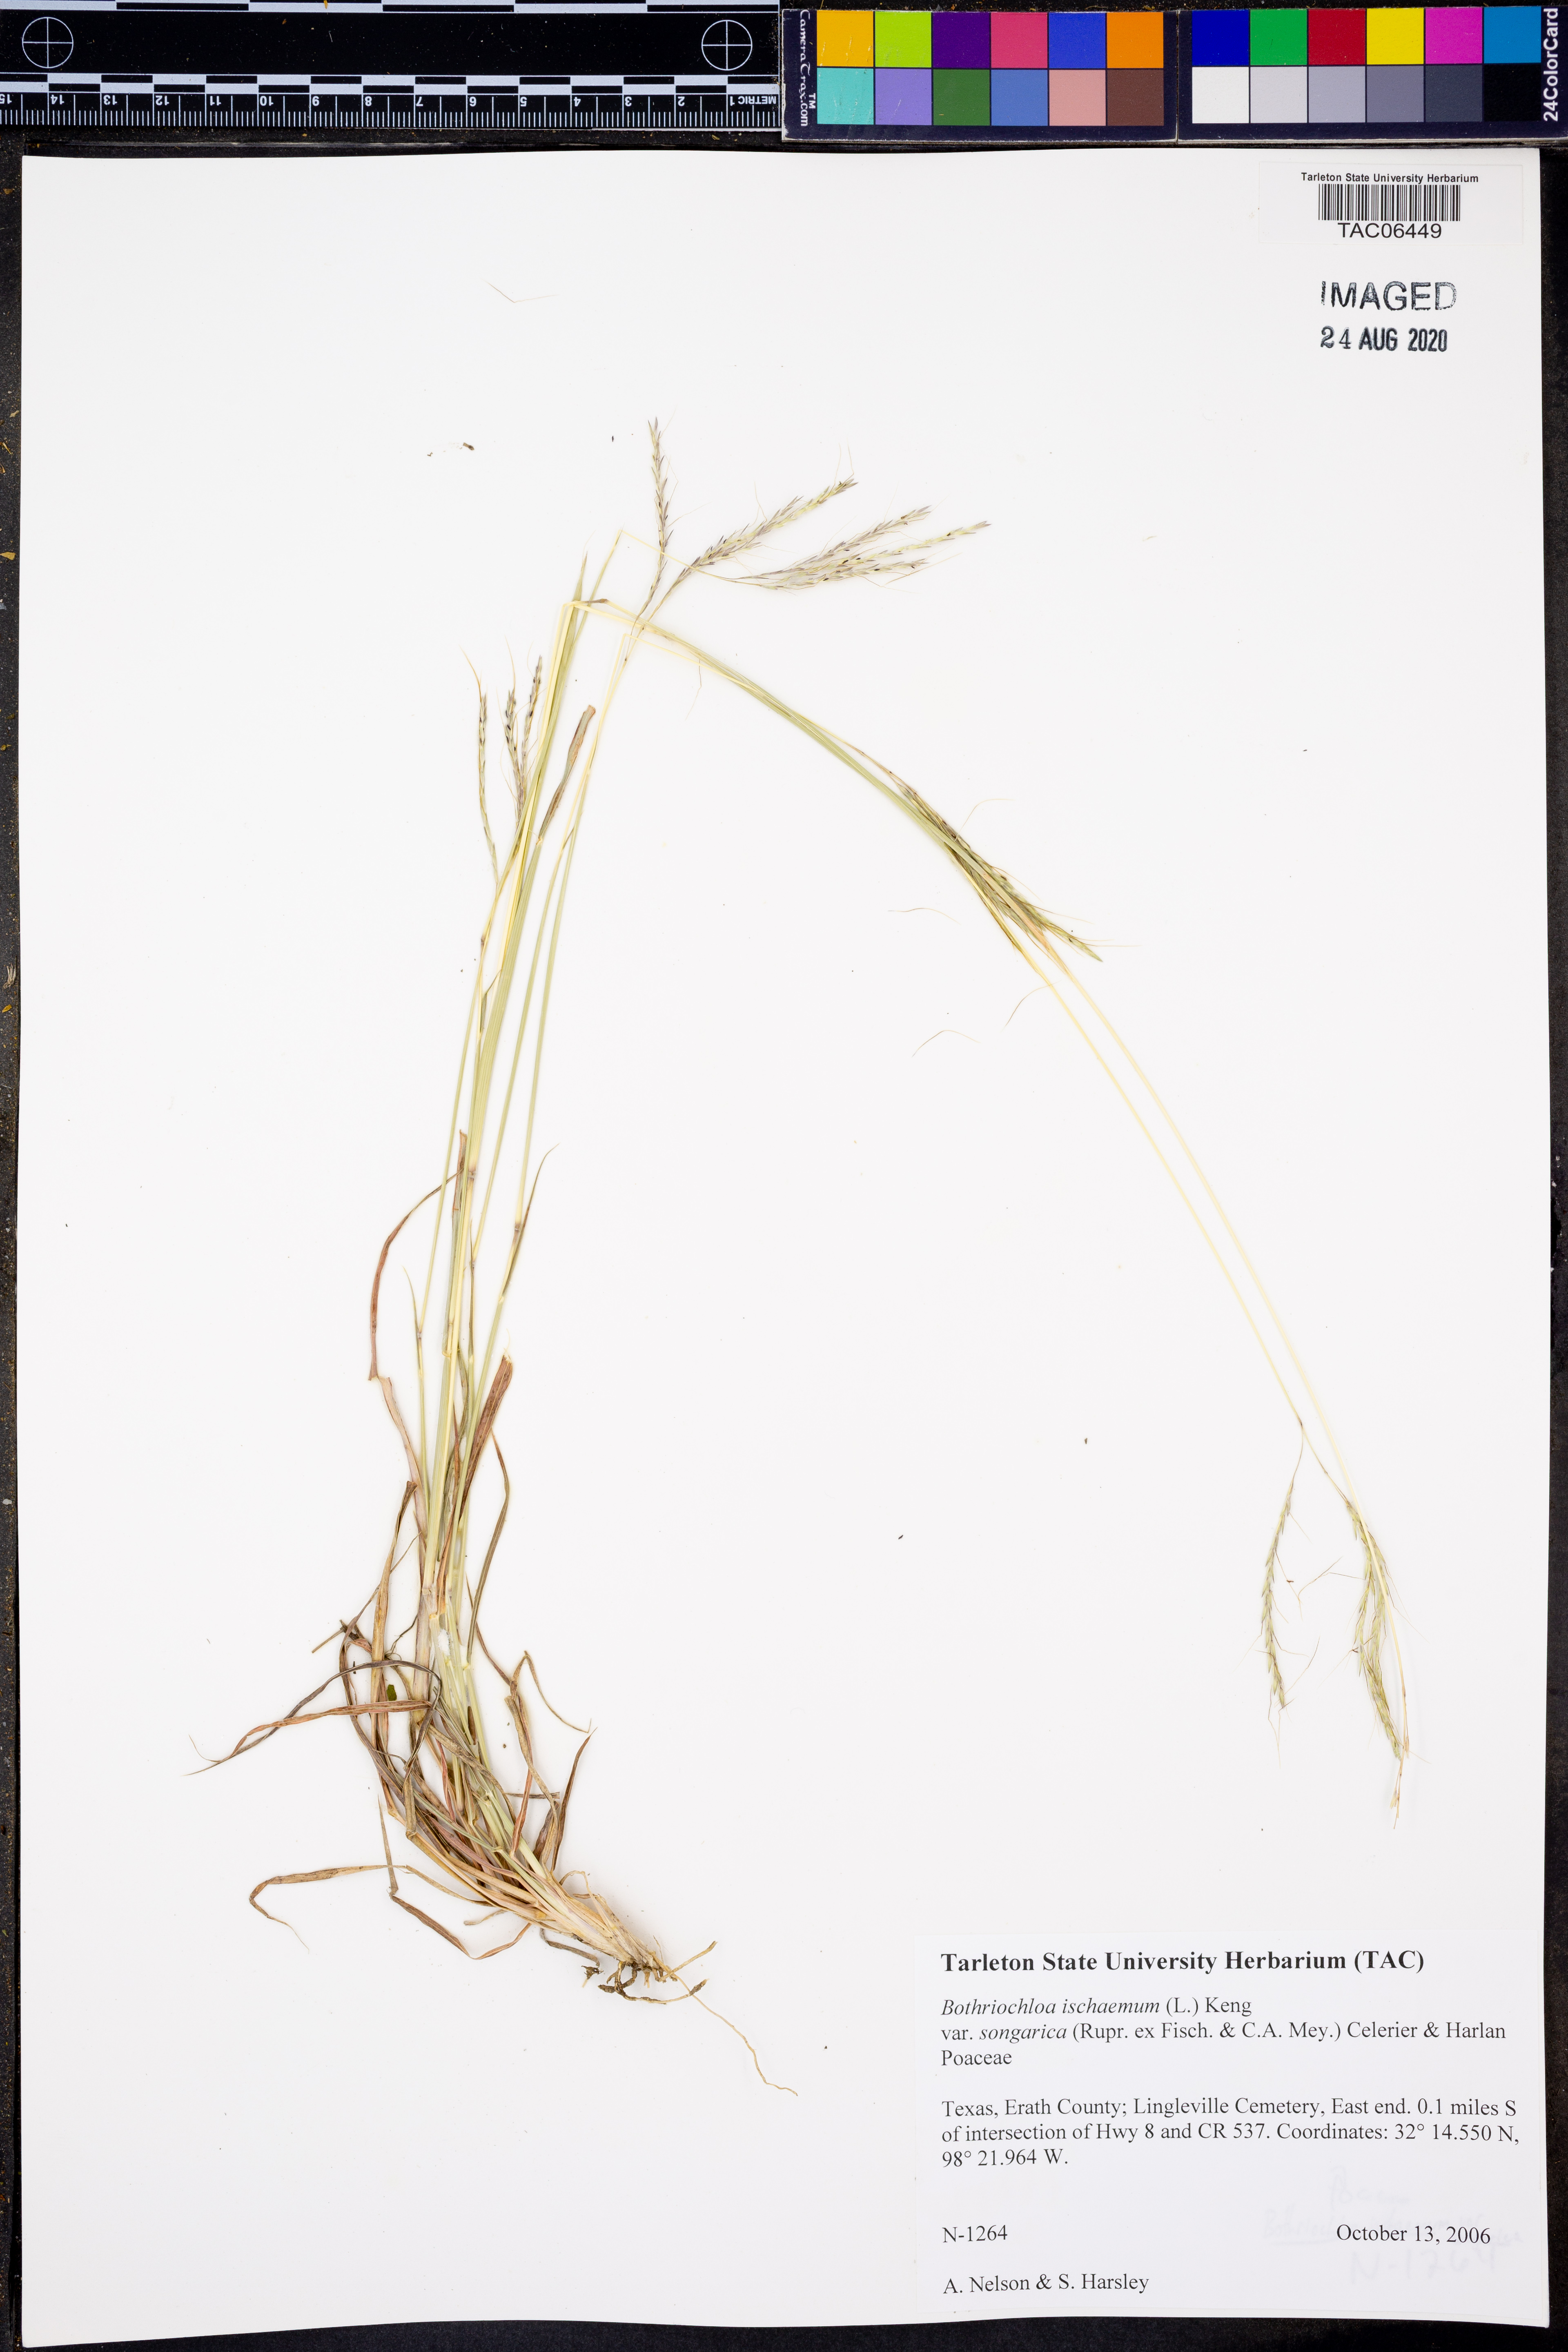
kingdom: Plantae
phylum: Tracheophyta
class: Liliopsida
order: Poales
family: Poaceae
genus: Bothriochloa
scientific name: Bothriochloa ischaemum
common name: Yellow bluestem
